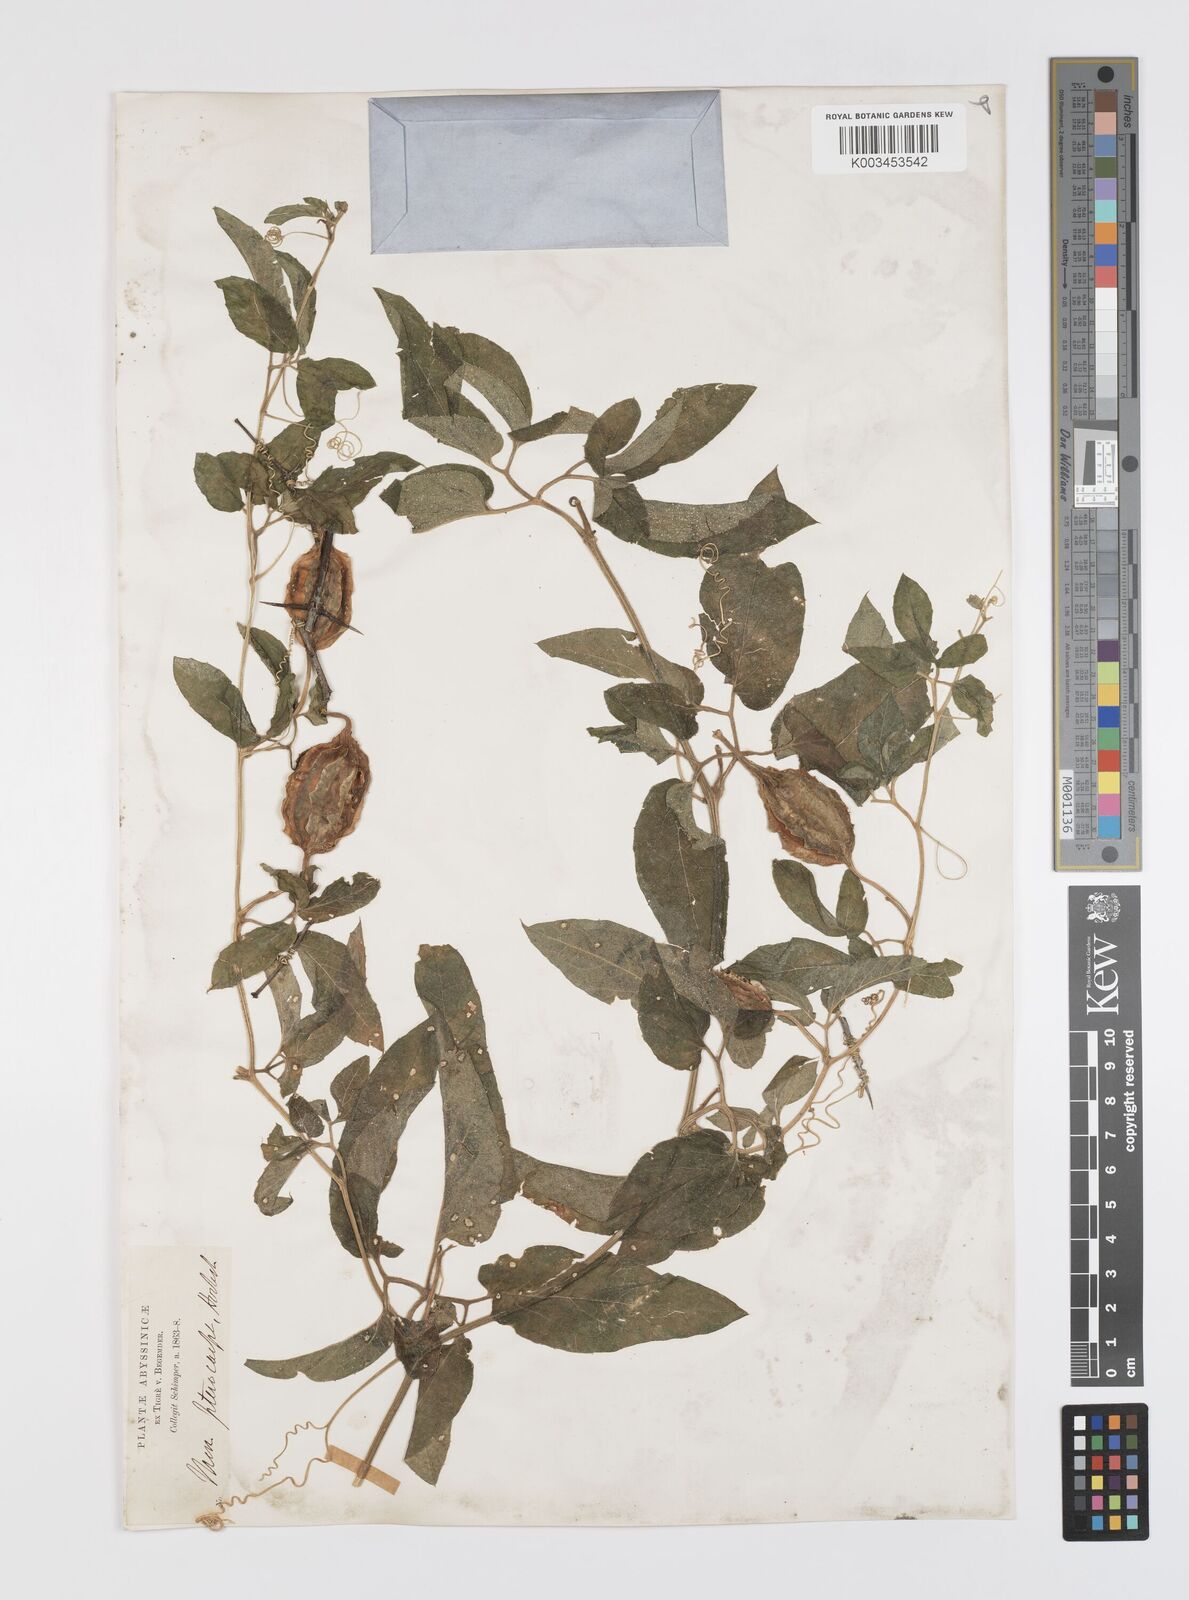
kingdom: Plantae
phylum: Tracheophyta
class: Magnoliopsida
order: Cucurbitales
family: Cucurbitaceae
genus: Momordica
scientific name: Momordica pterocarpa
